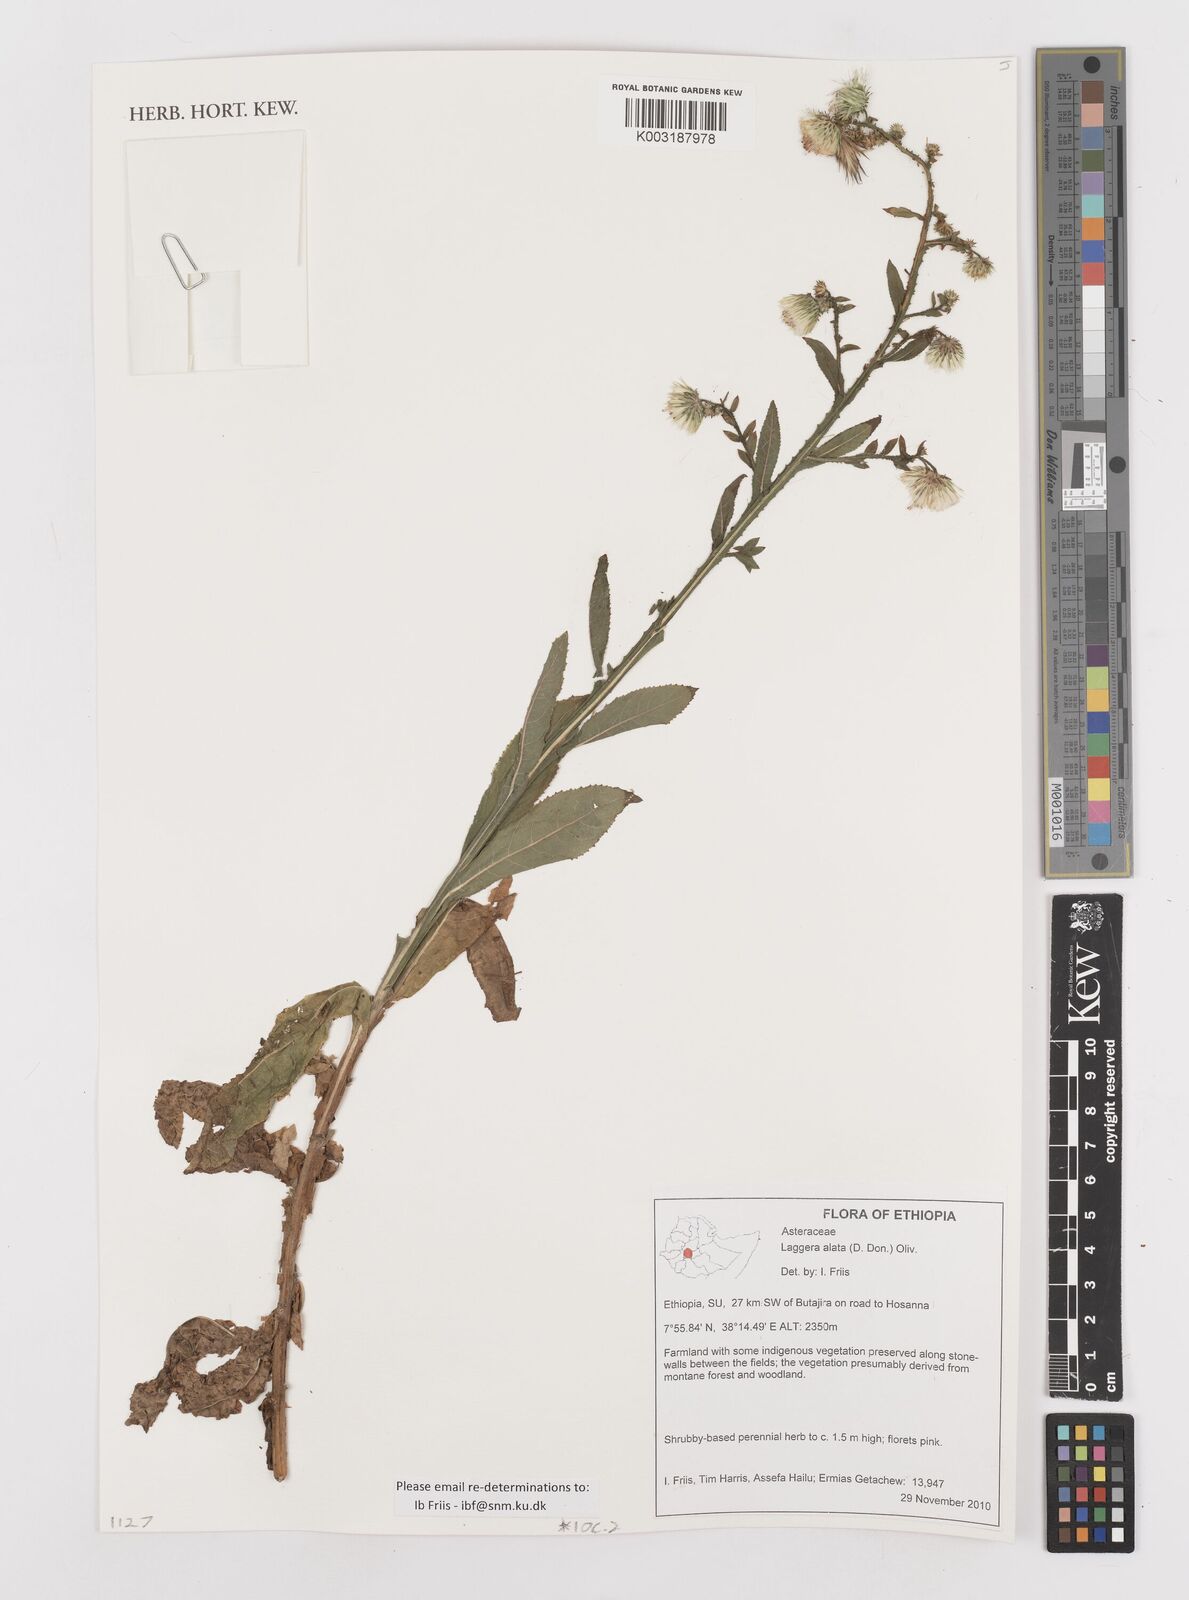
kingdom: Plantae
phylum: Tracheophyta
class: Magnoliopsida
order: Asterales
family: Asteraceae
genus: Laggera
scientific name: Laggera crispata
